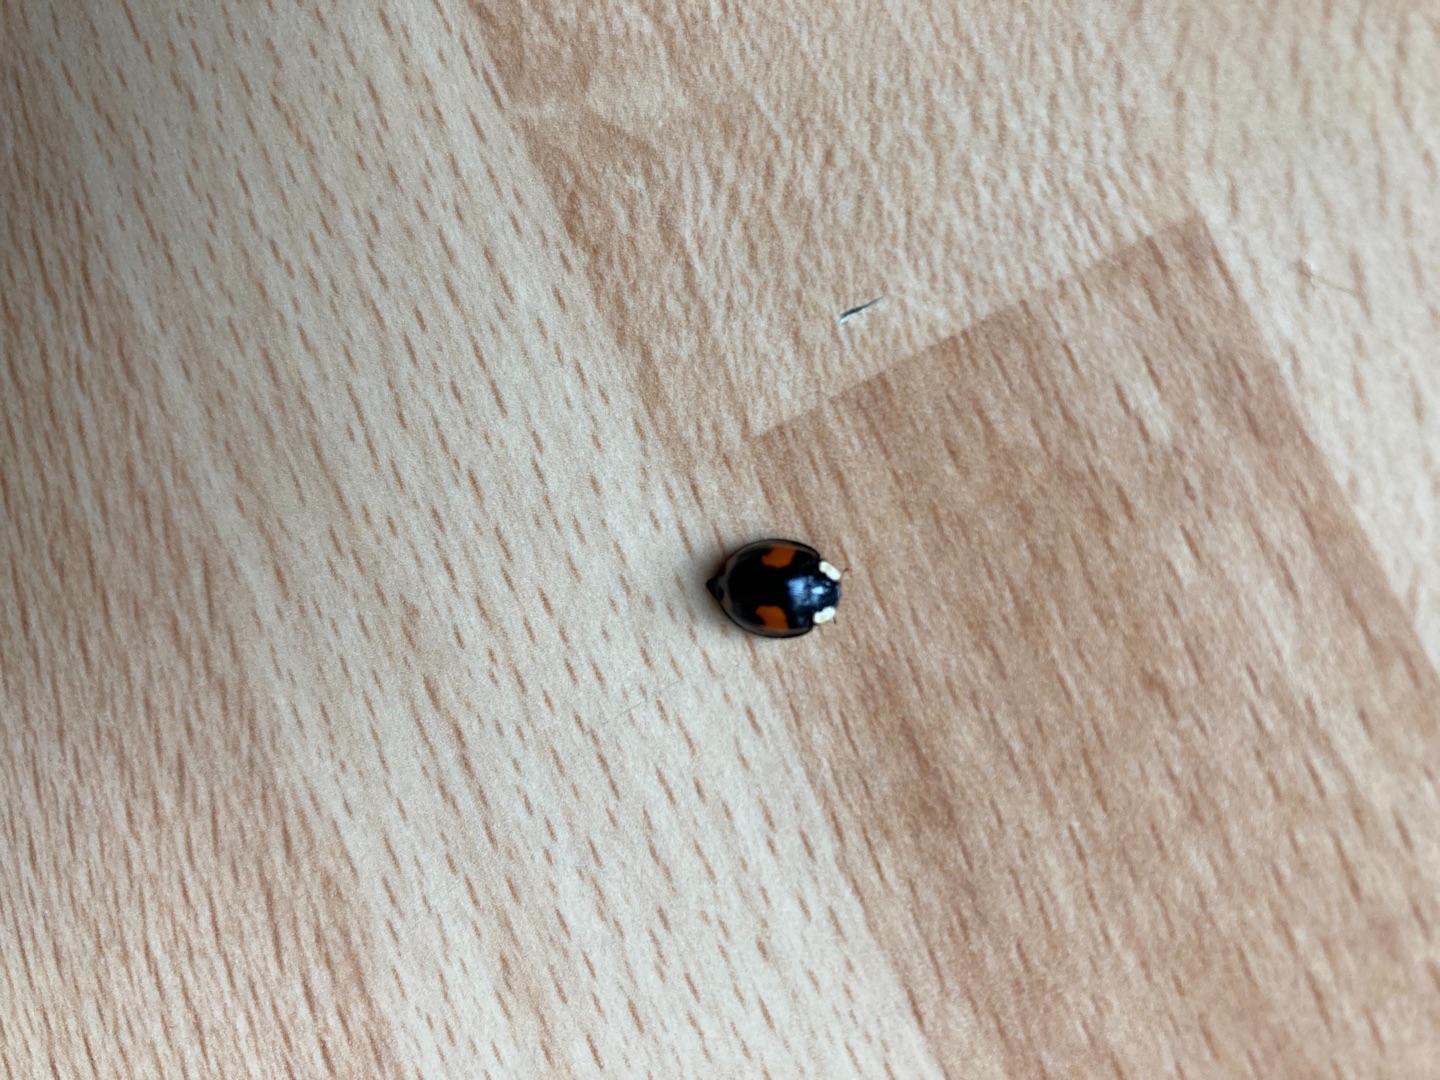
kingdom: Animalia
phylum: Arthropoda
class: Insecta
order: Coleoptera
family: Coccinellidae
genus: Harmonia
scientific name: Harmonia axyridis
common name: Harlekinmariehøne
